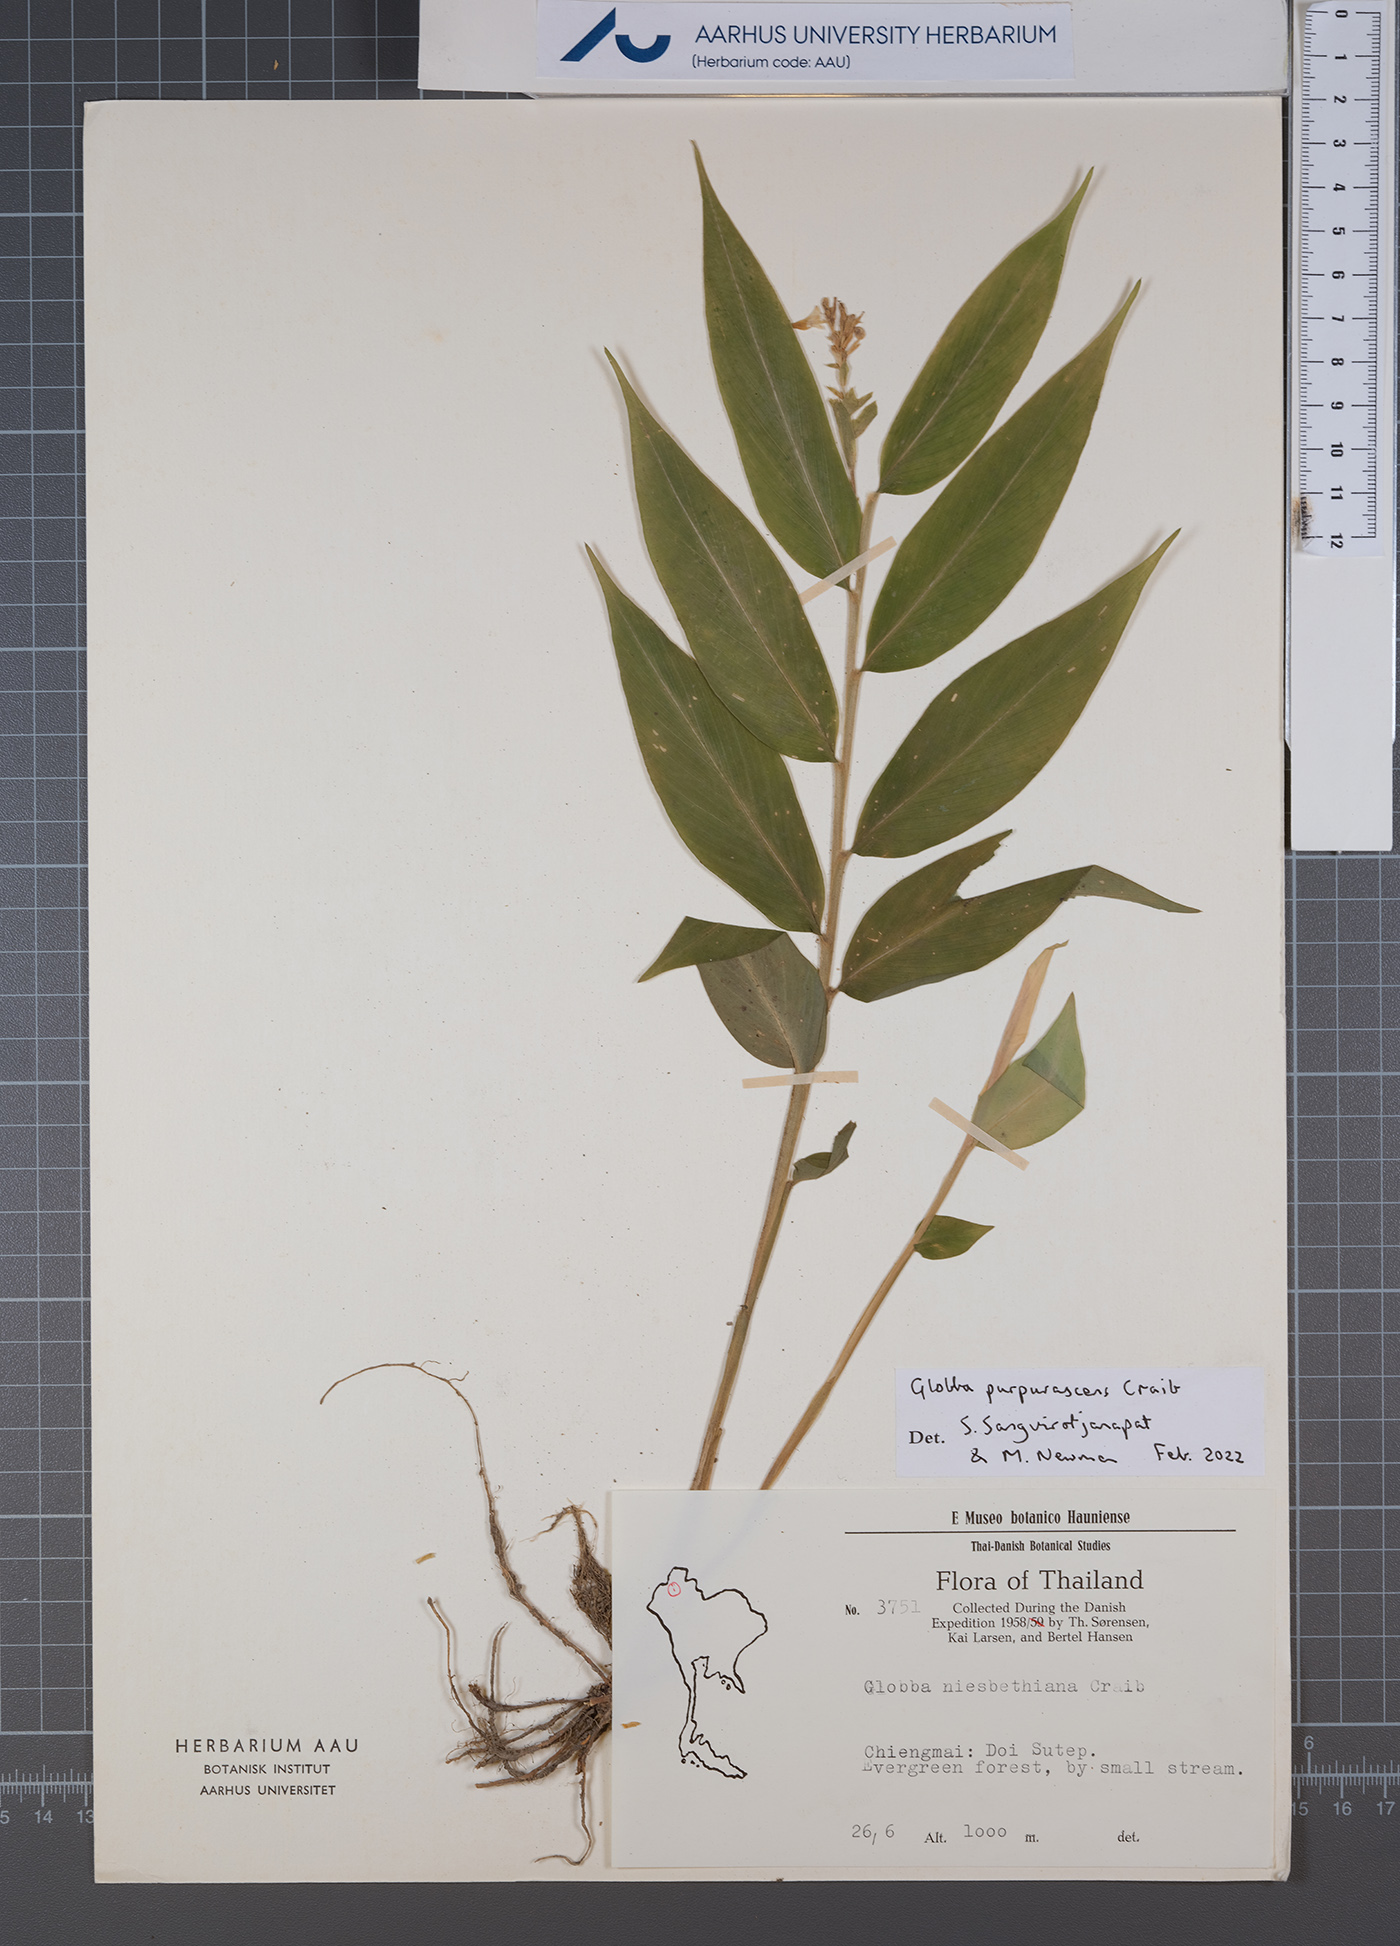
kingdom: Plantae
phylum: Tracheophyta
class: Liliopsida
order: Zingiberales
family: Zingiberaceae
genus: Globba
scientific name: Globba purpurascens
